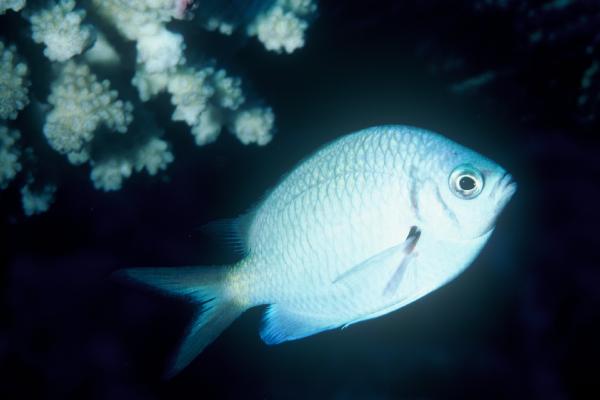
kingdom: Animalia
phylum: Chordata
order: Perciformes
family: Pomacentridae
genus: Chromis
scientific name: Chromis alpha
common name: Yellow-speckled chromis
